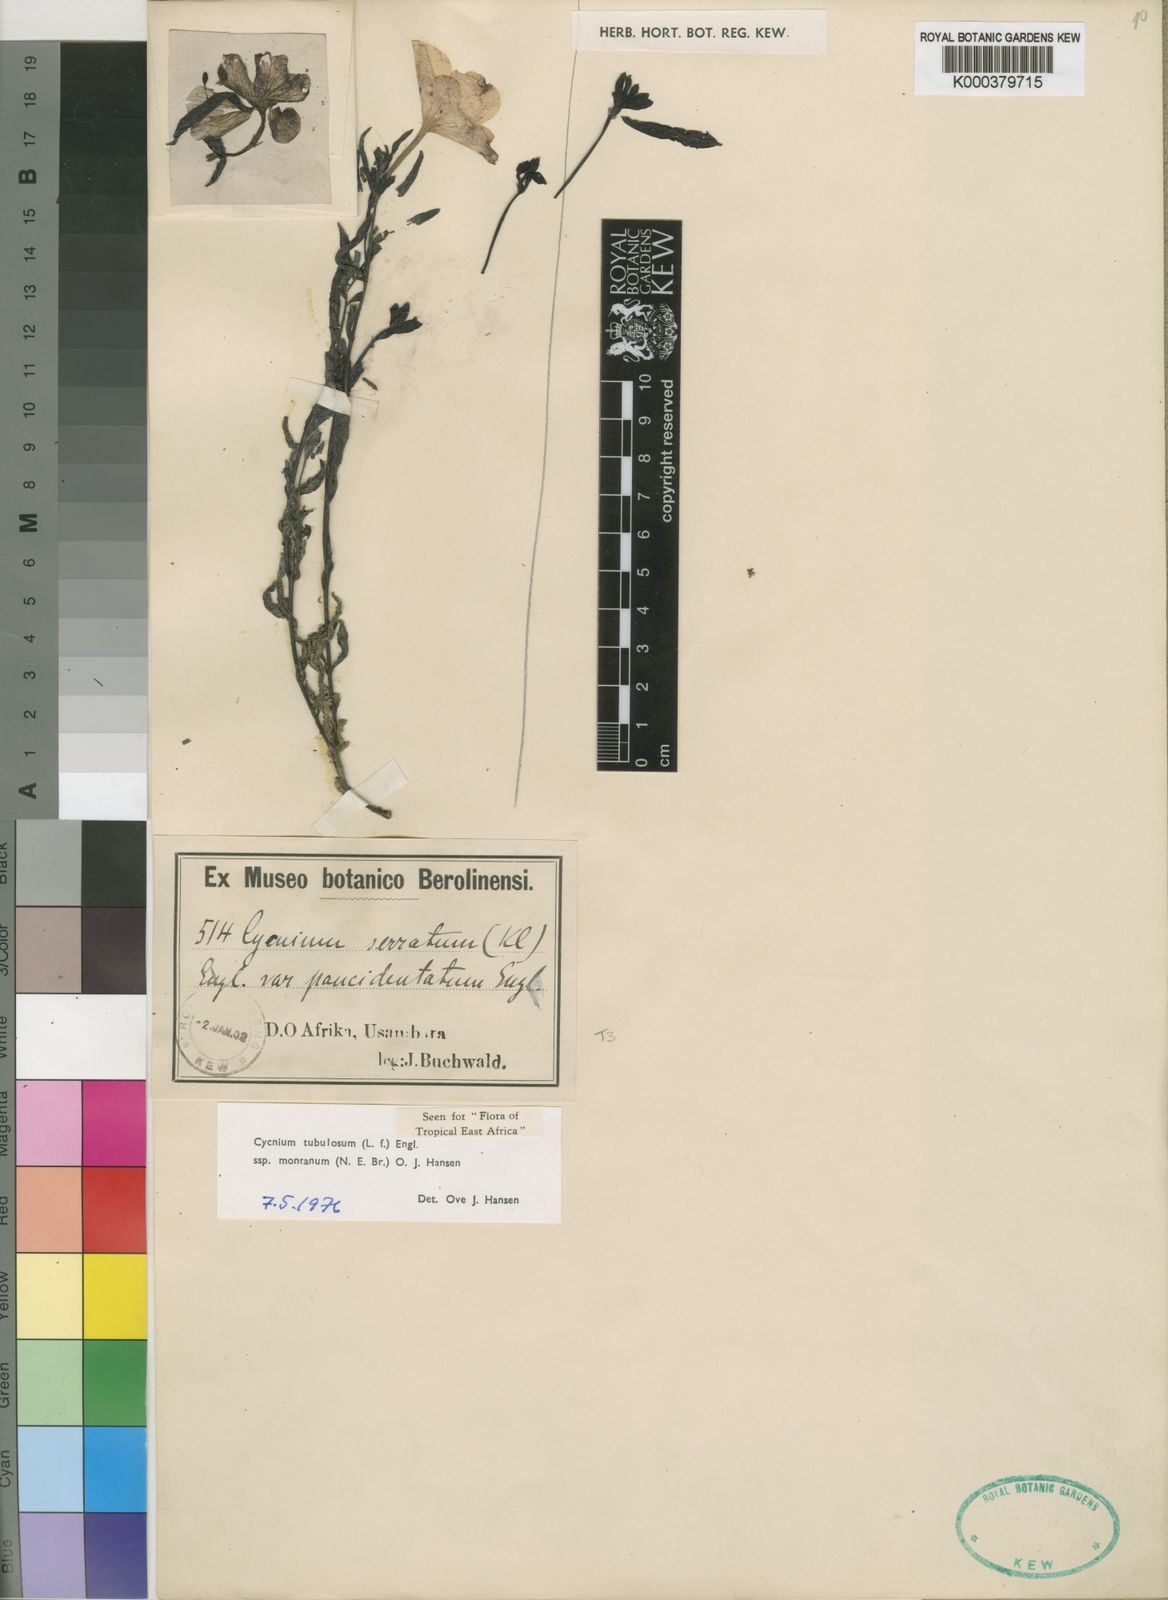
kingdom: Plantae
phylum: Tracheophyta
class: Magnoliopsida
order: Lamiales
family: Orobanchaceae
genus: Cycnium
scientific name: Cycnium tubulosum
